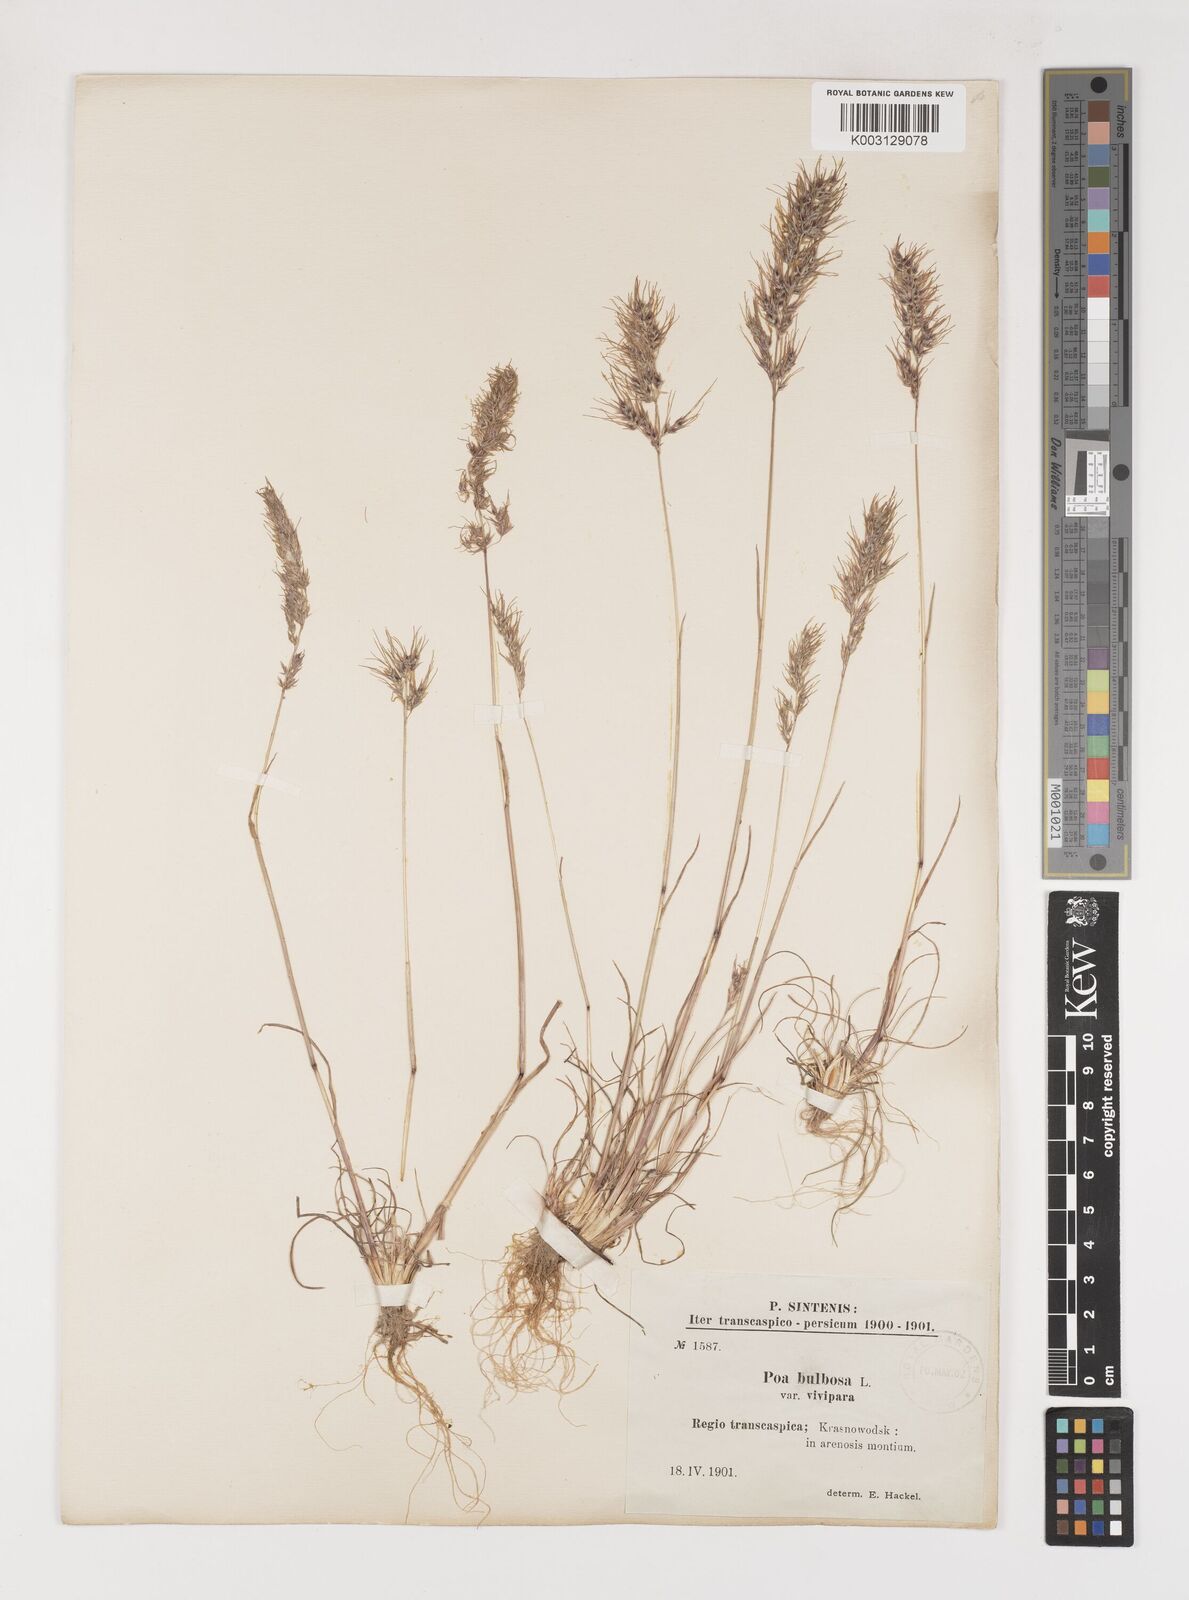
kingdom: Plantae
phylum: Tracheophyta
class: Liliopsida
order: Poales
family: Poaceae
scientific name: Poaceae
